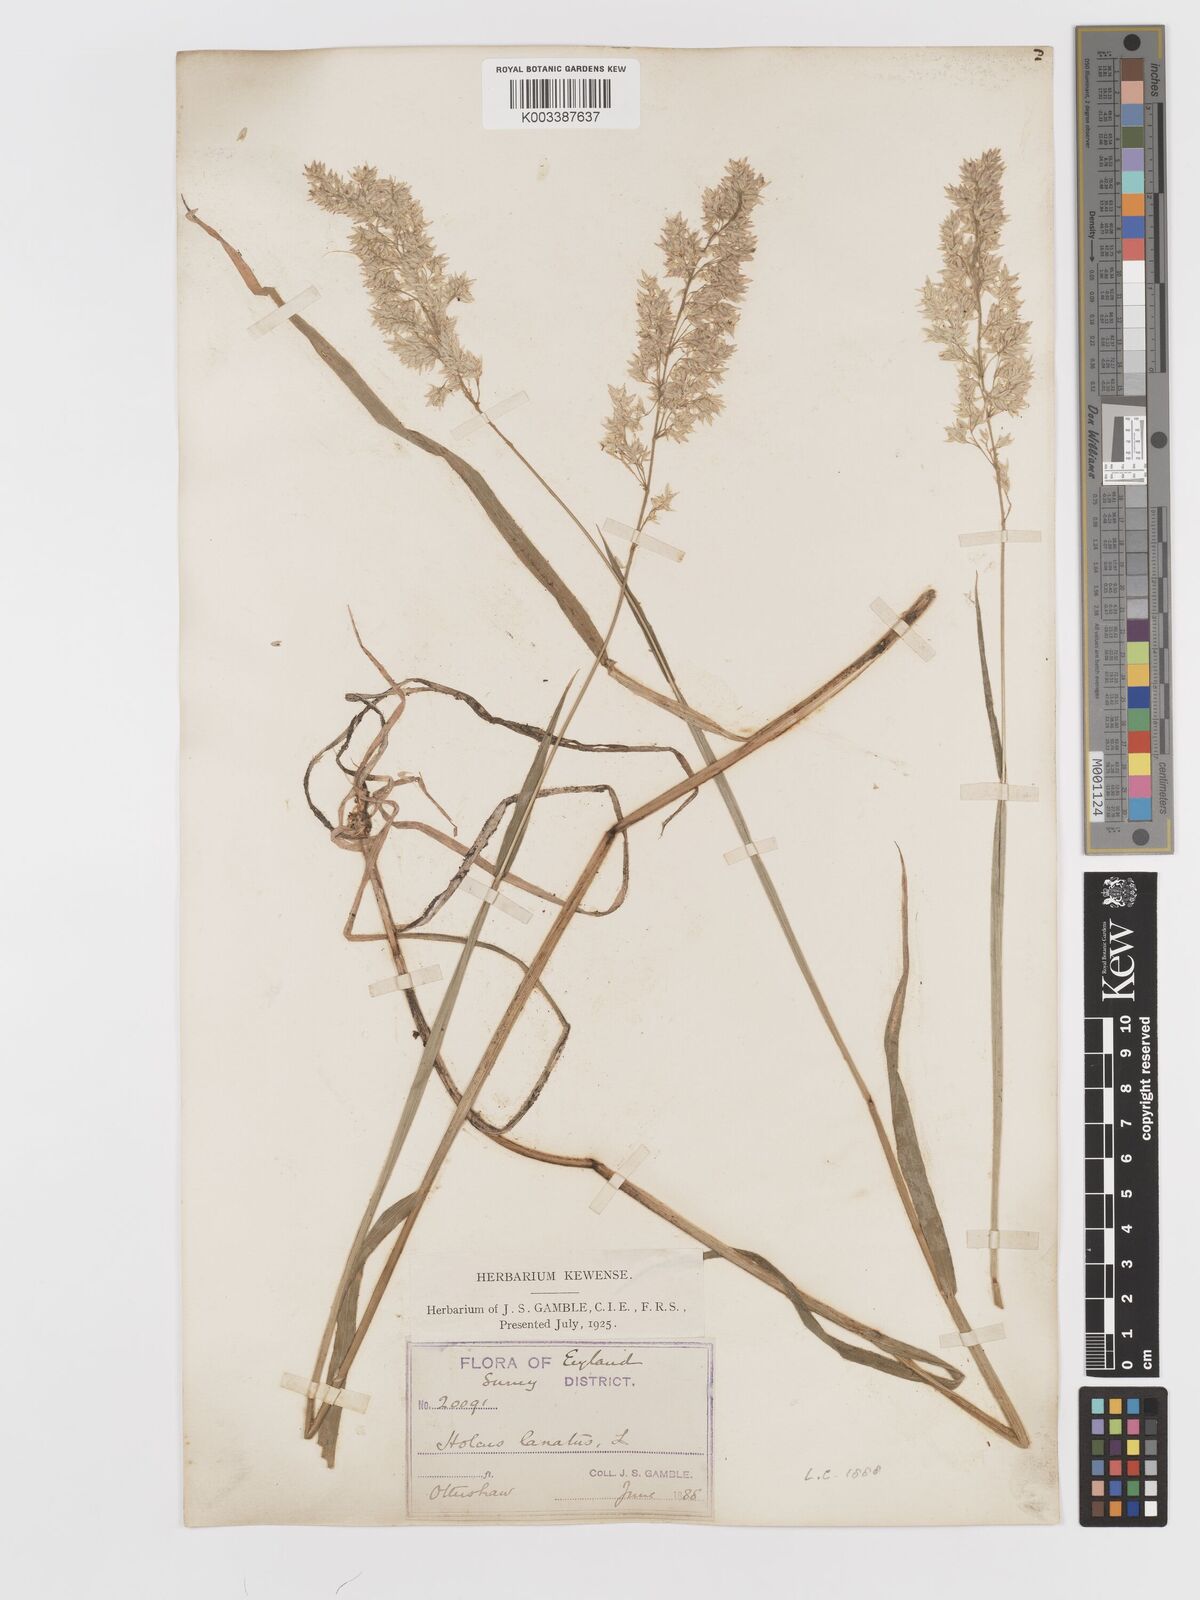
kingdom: Plantae
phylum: Tracheophyta
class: Liliopsida
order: Poales
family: Poaceae
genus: Holcus
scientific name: Holcus lanatus
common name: Yorkshire-fog
